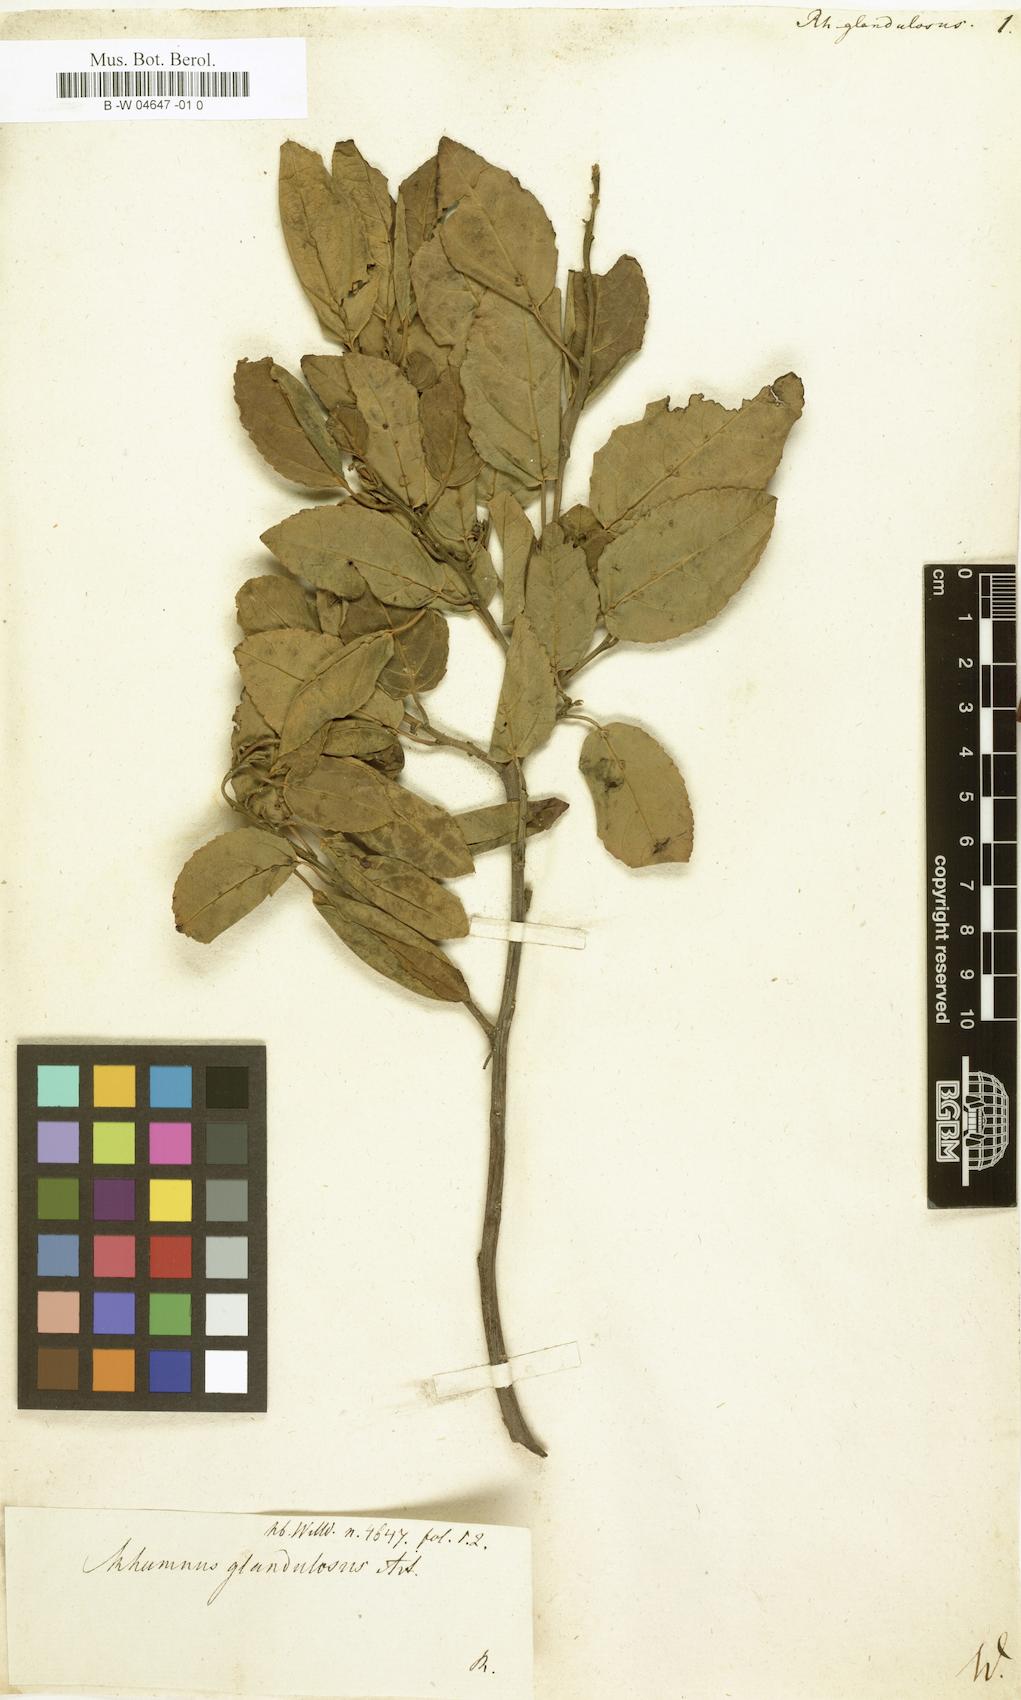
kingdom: Plantae
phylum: Tracheophyta
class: Magnoliopsida
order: Rosales
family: Rhamnaceae
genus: Rhamnus
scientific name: Rhamnus glandulosa
